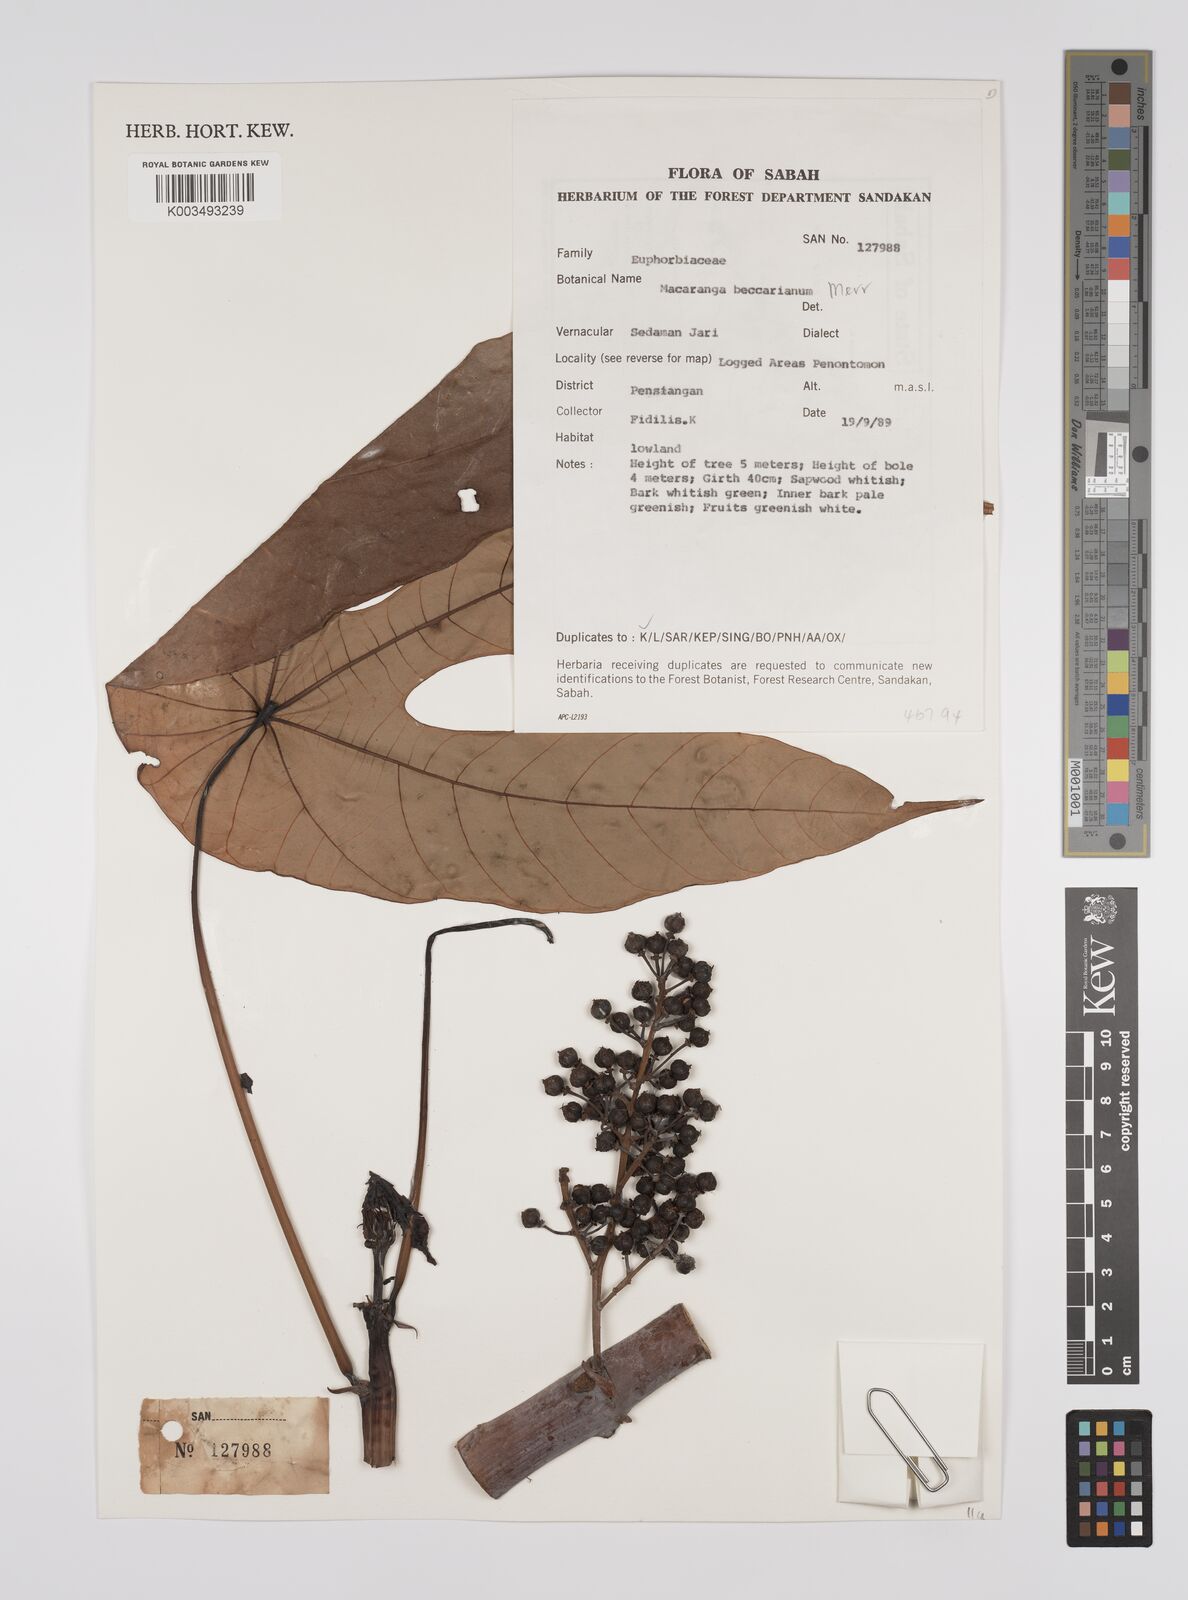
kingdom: Plantae
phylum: Tracheophyta
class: Magnoliopsida
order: Malpighiales
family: Euphorbiaceae
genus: Macaranga
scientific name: Macaranga beccariana
